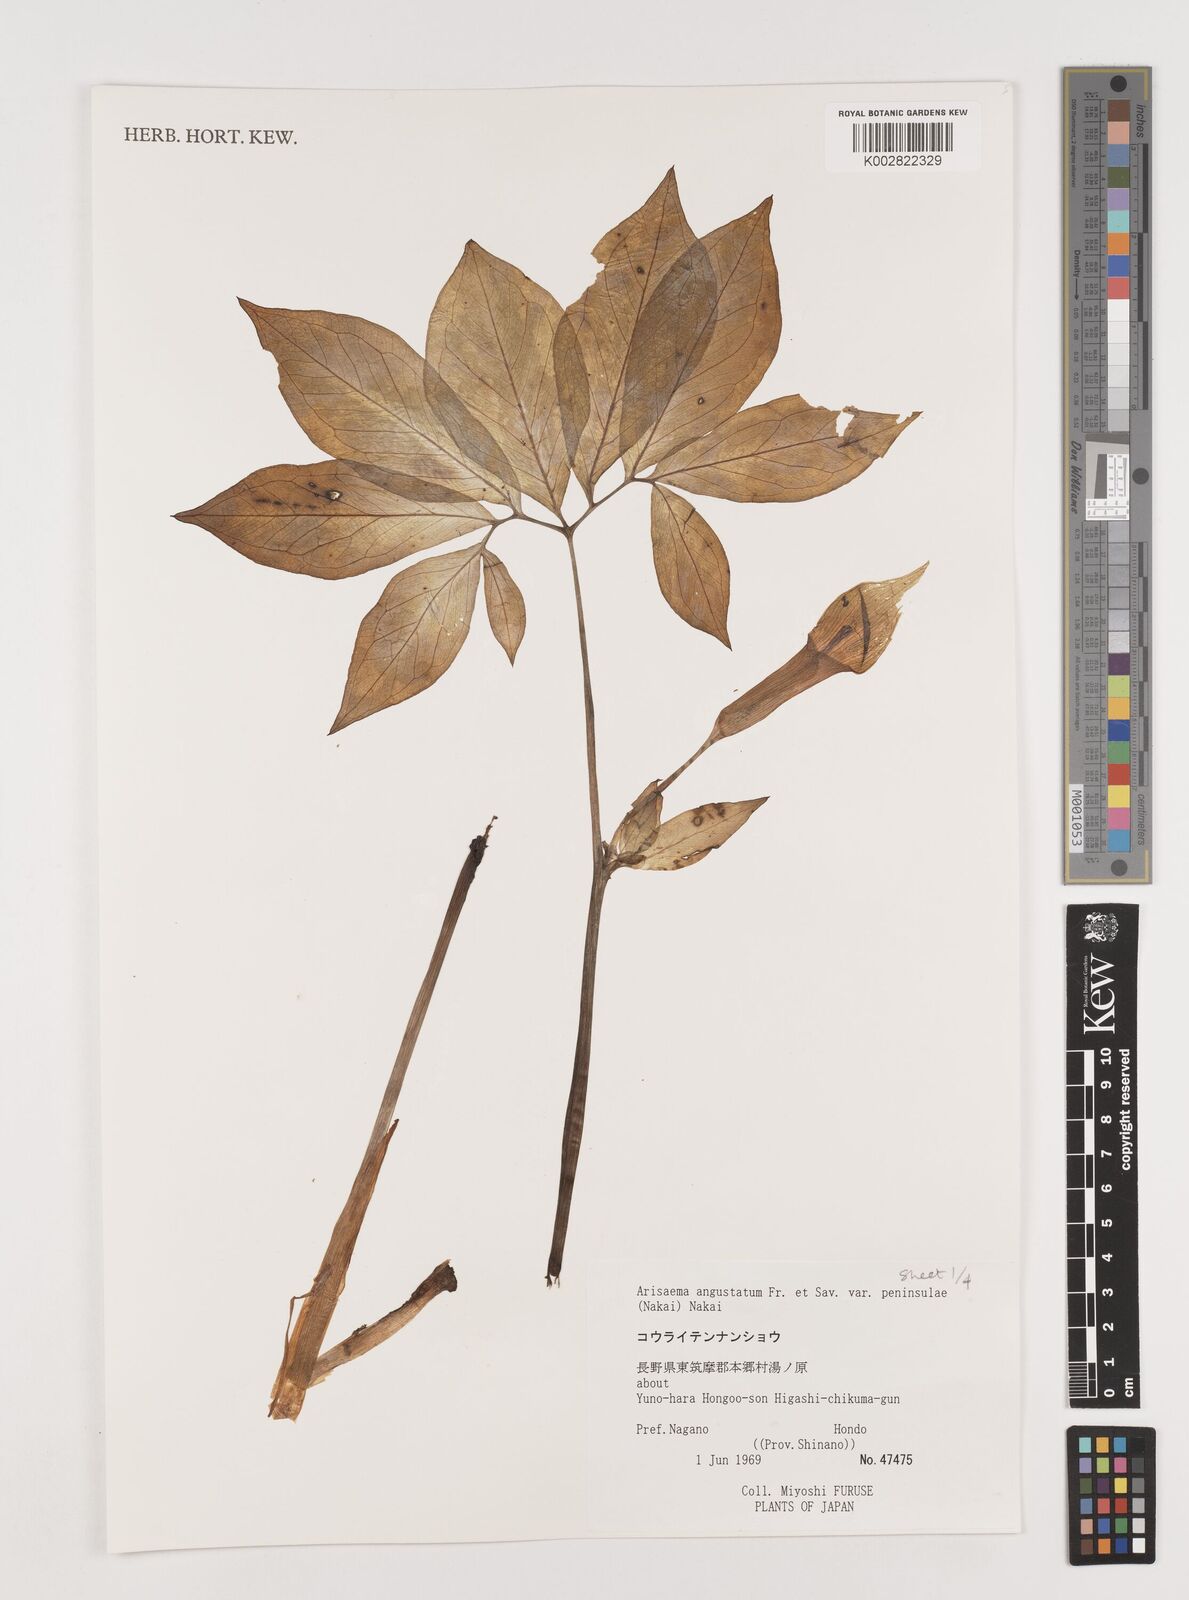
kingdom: Plantae
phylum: Tracheophyta
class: Liliopsida
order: Alismatales
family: Araceae
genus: Arisaema
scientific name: Arisaema angustatum
